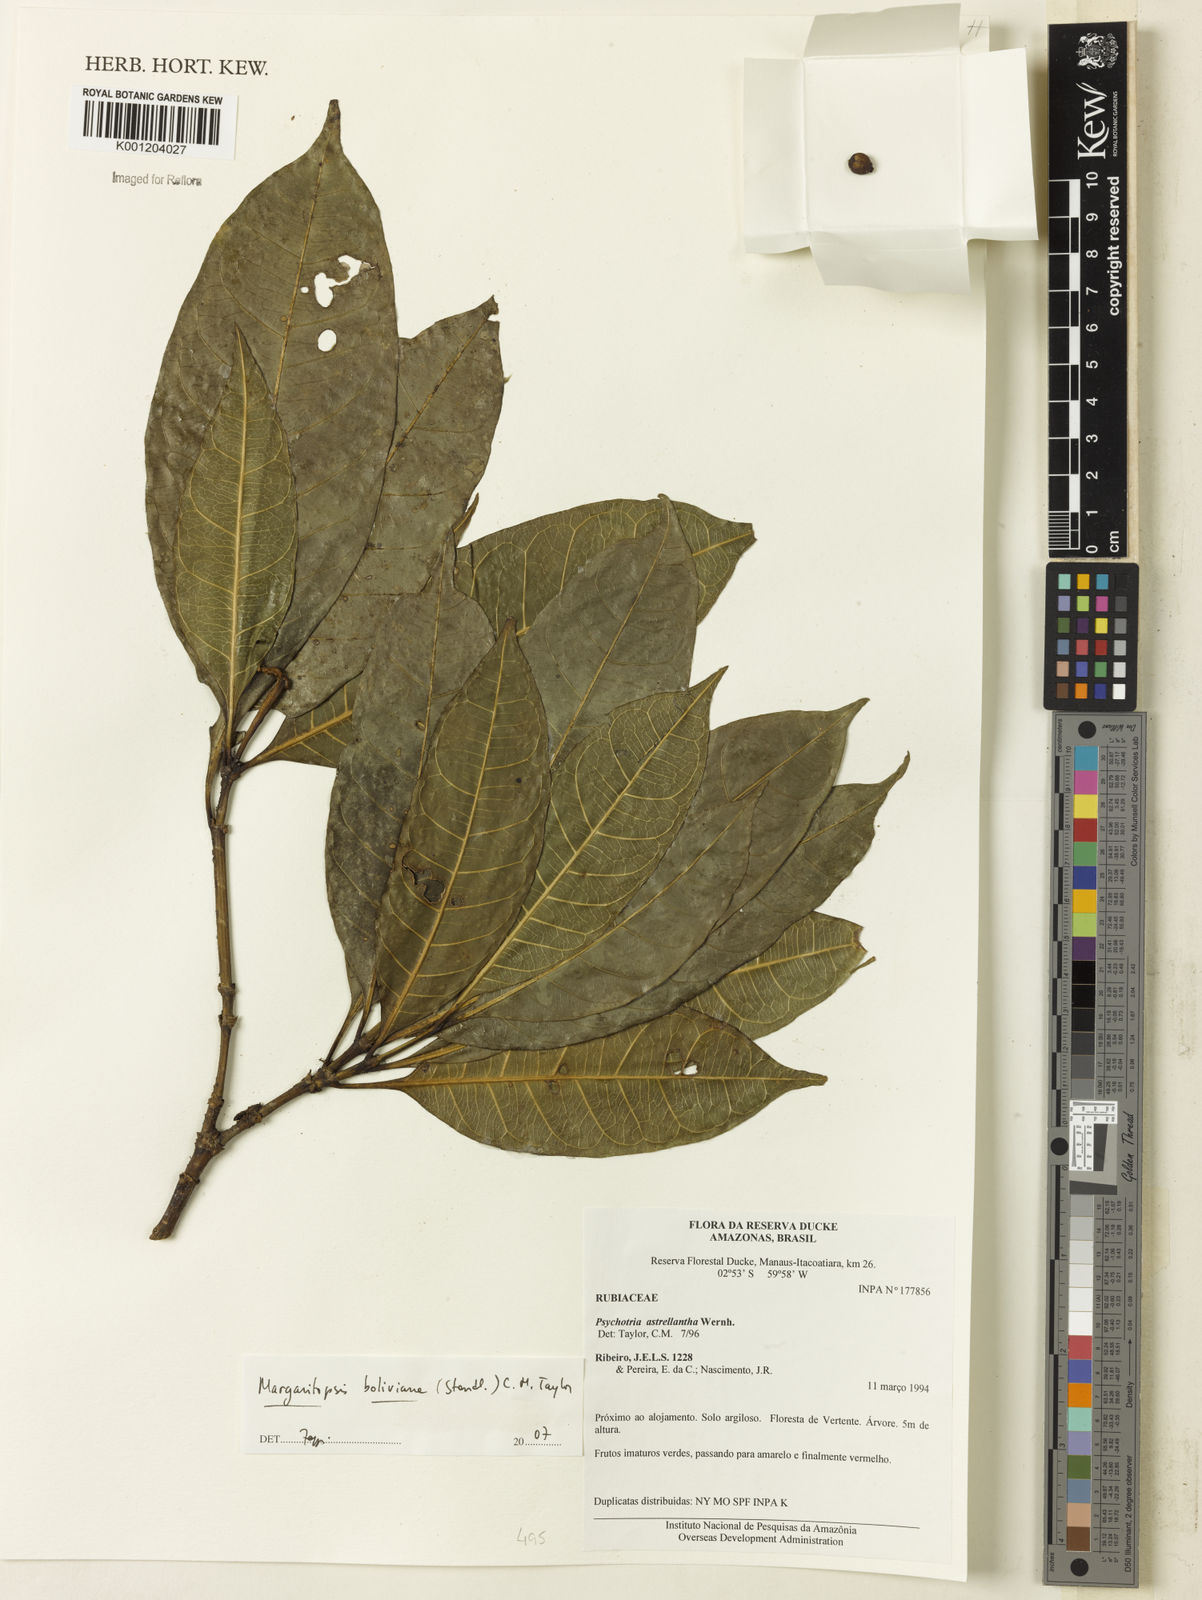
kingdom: Plantae
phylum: Tracheophyta
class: Magnoliopsida
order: Gentianales
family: Rubiaceae
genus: Eumachia
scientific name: Eumachia boliviana
